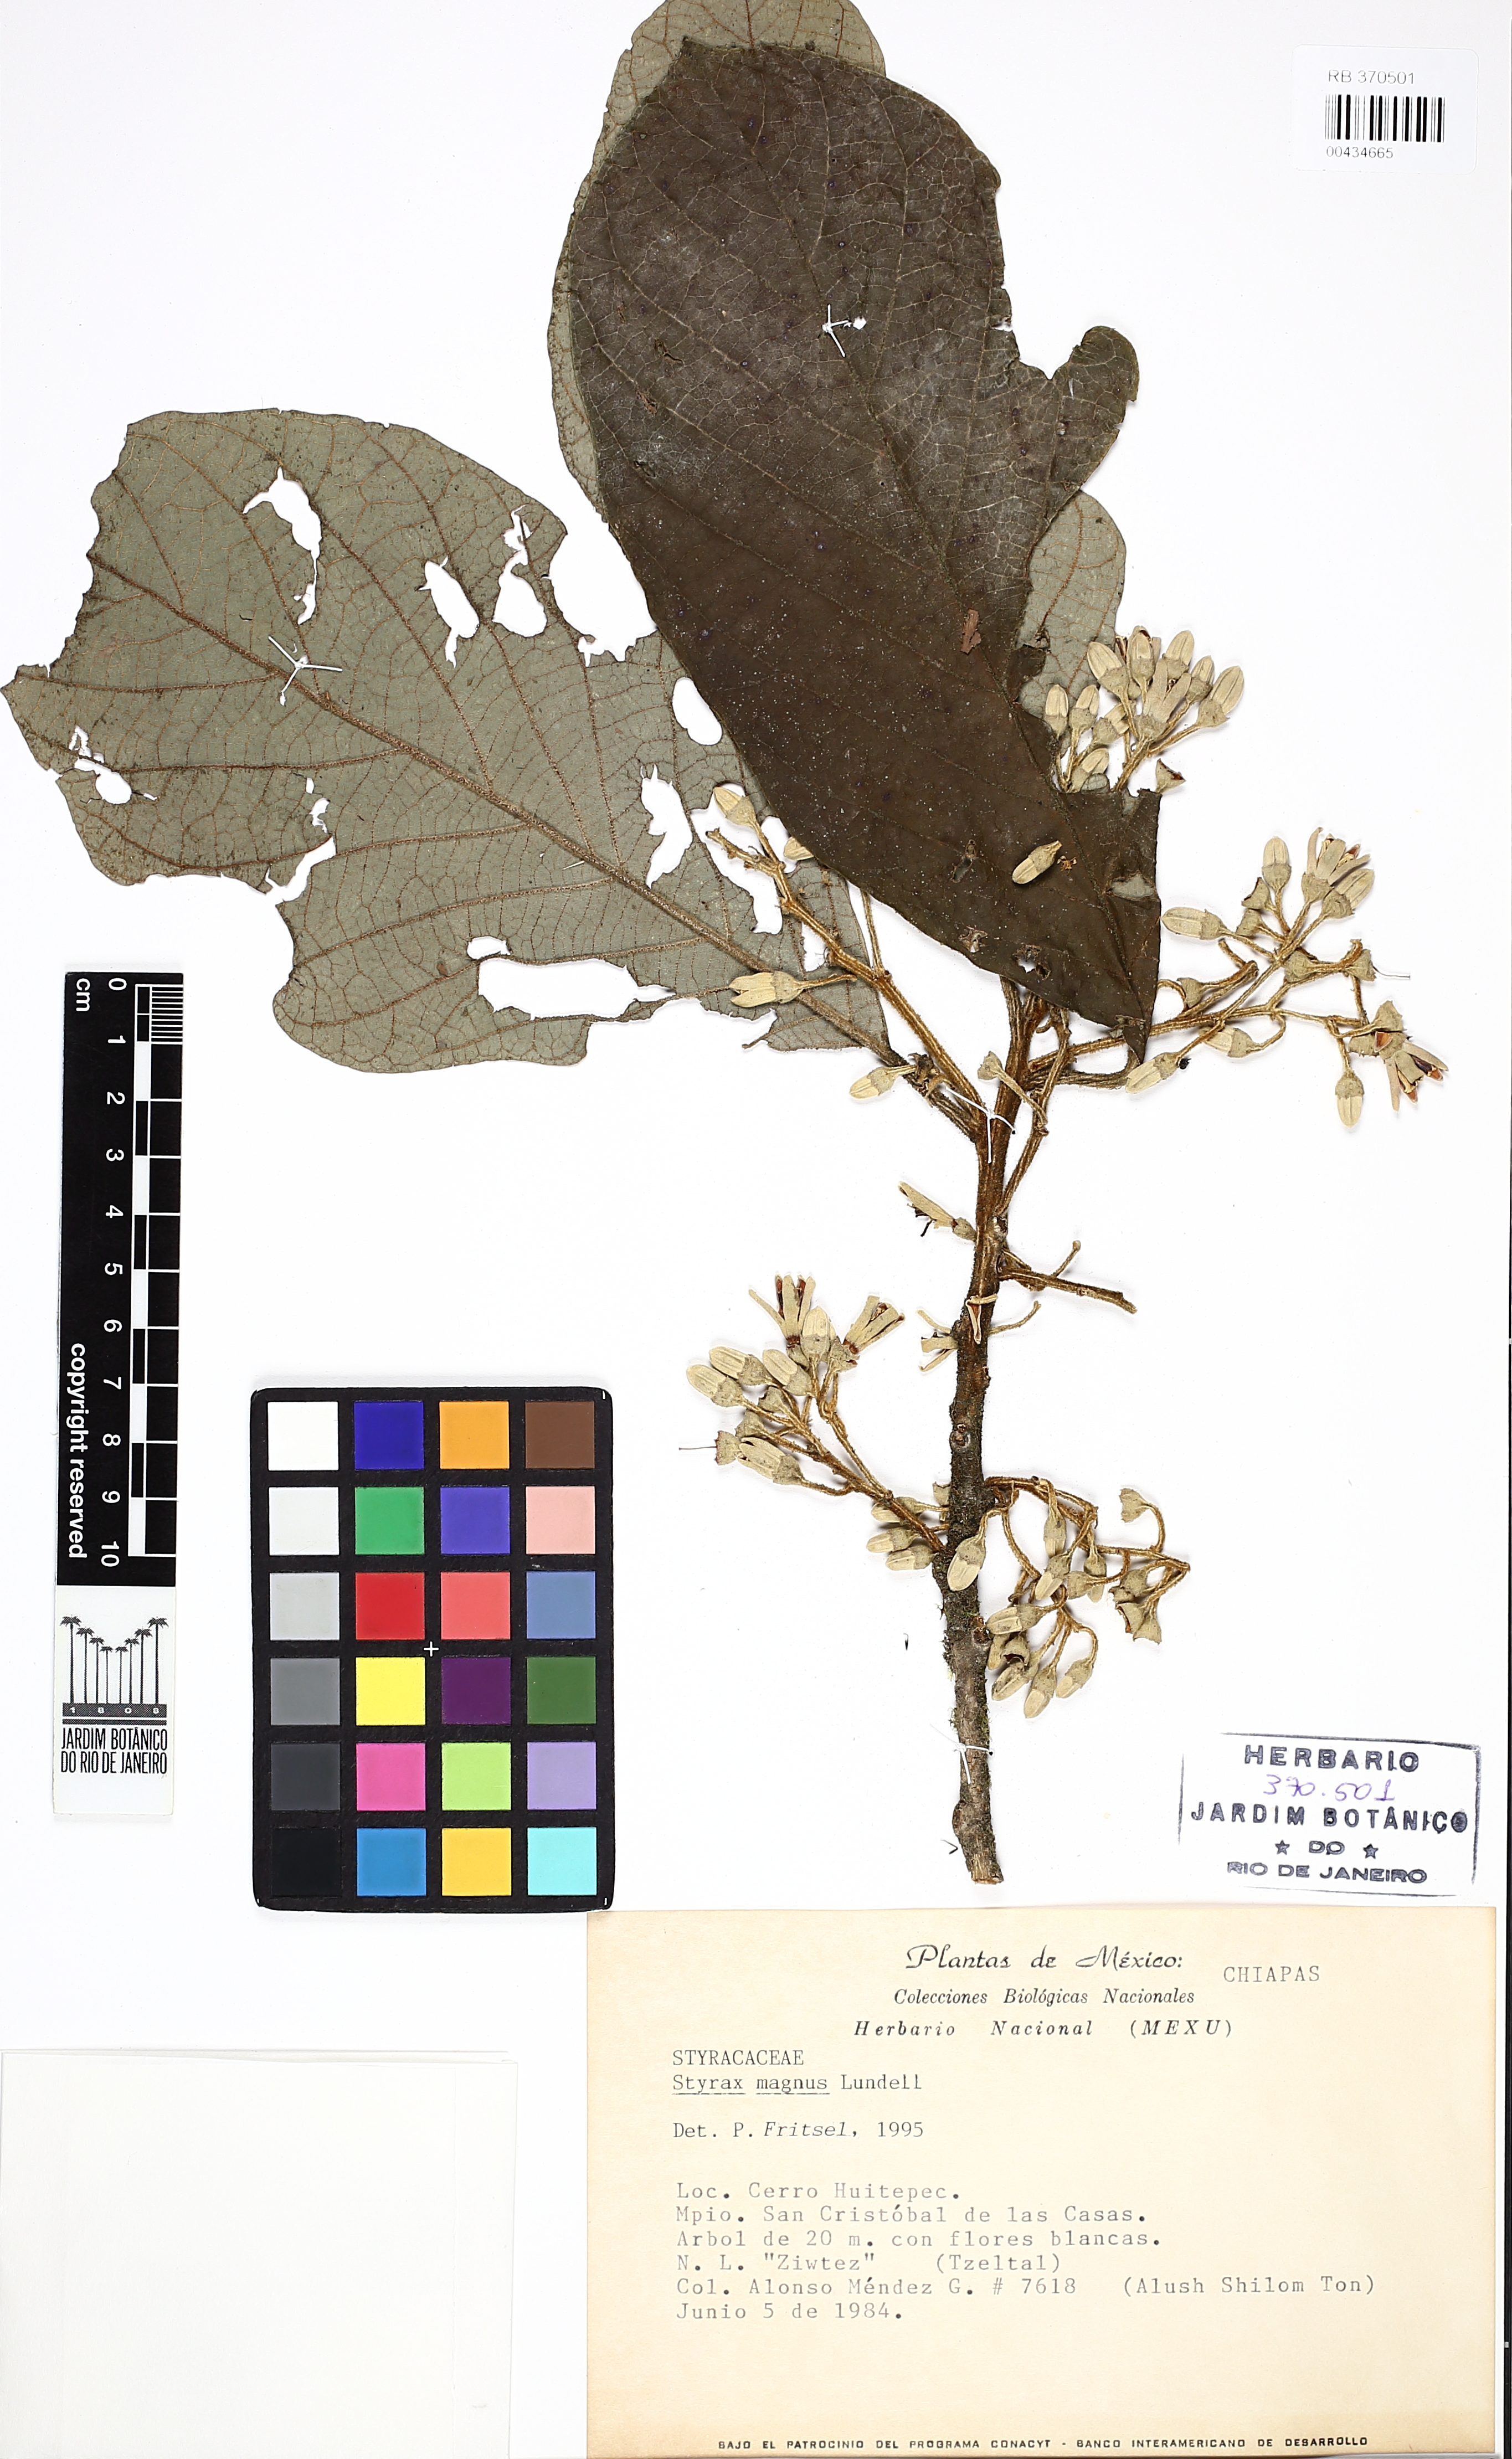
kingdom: Plantae
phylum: Tracheophyta
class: Magnoliopsida
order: Ericales
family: Styracaceae
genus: Styrax
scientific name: Styrax magnus
